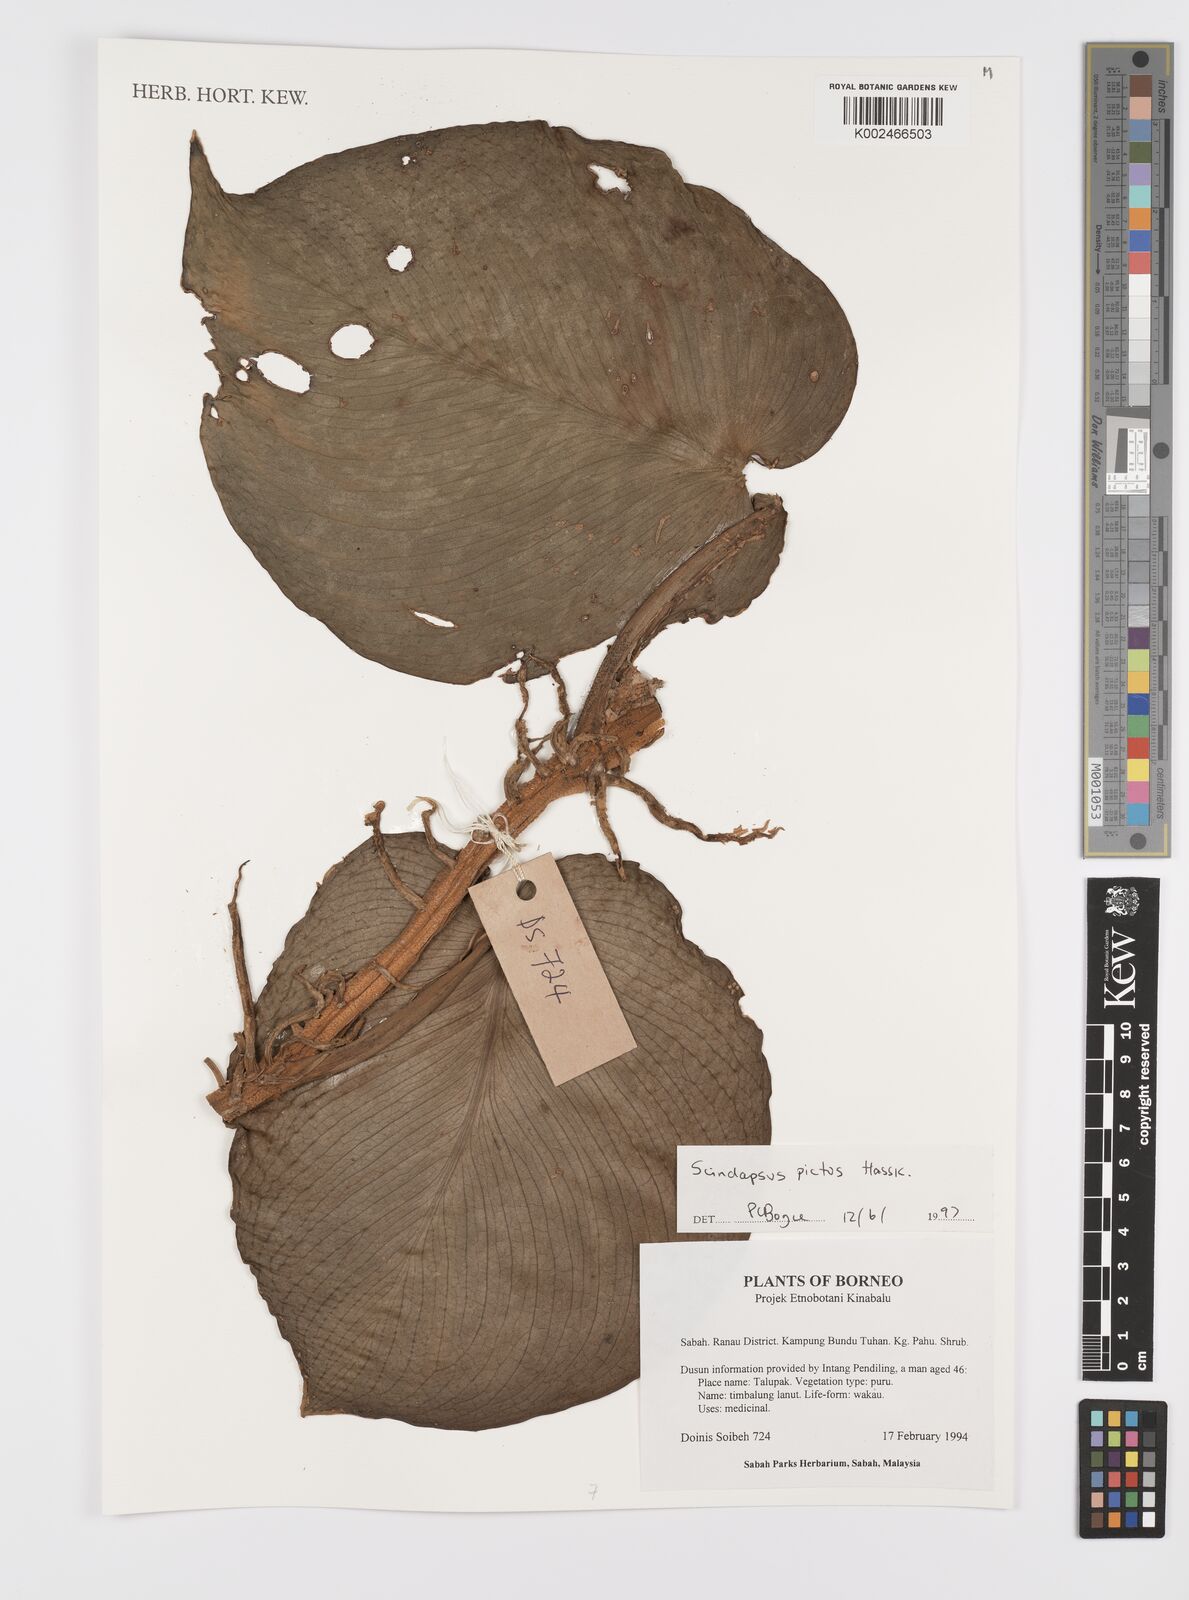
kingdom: Plantae
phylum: Tracheophyta
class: Liliopsida
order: Alismatales
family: Araceae
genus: Scindapsus
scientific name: Scindapsus pictus
